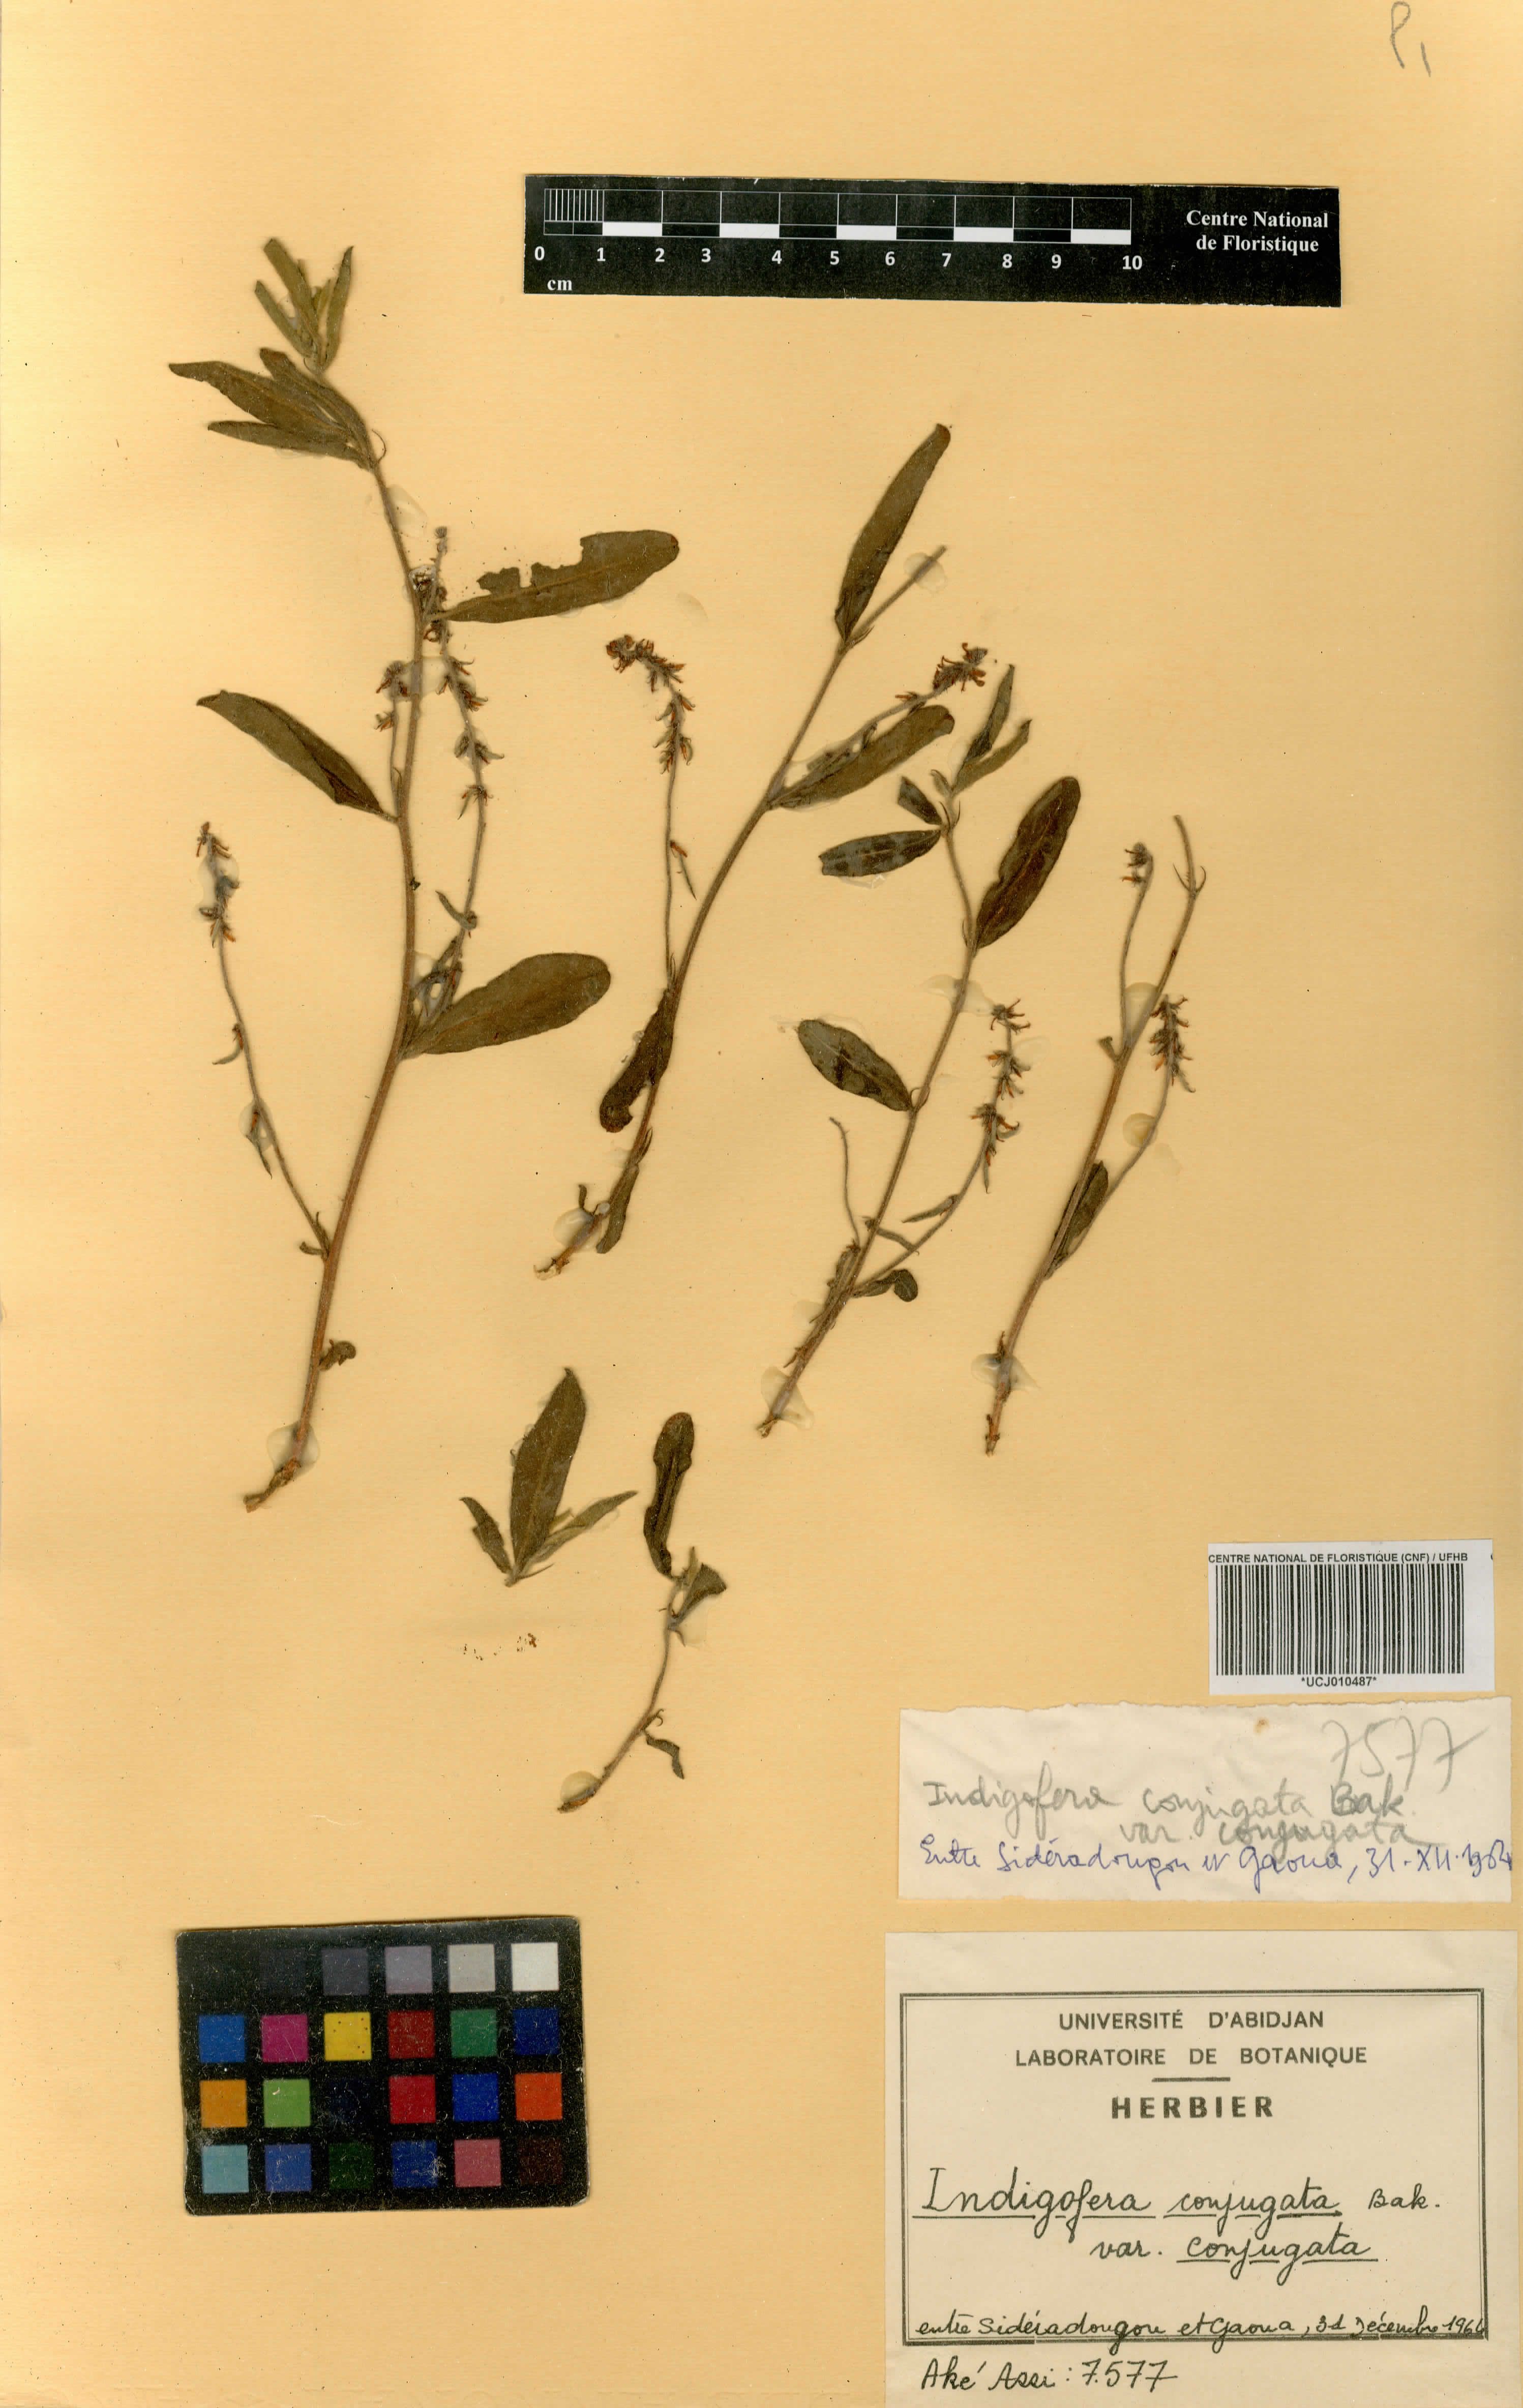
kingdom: Plantae
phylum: Tracheophyta
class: Magnoliopsida
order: Fabales
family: Fabaceae
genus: Indigofera
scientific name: Indigofera conjugata
